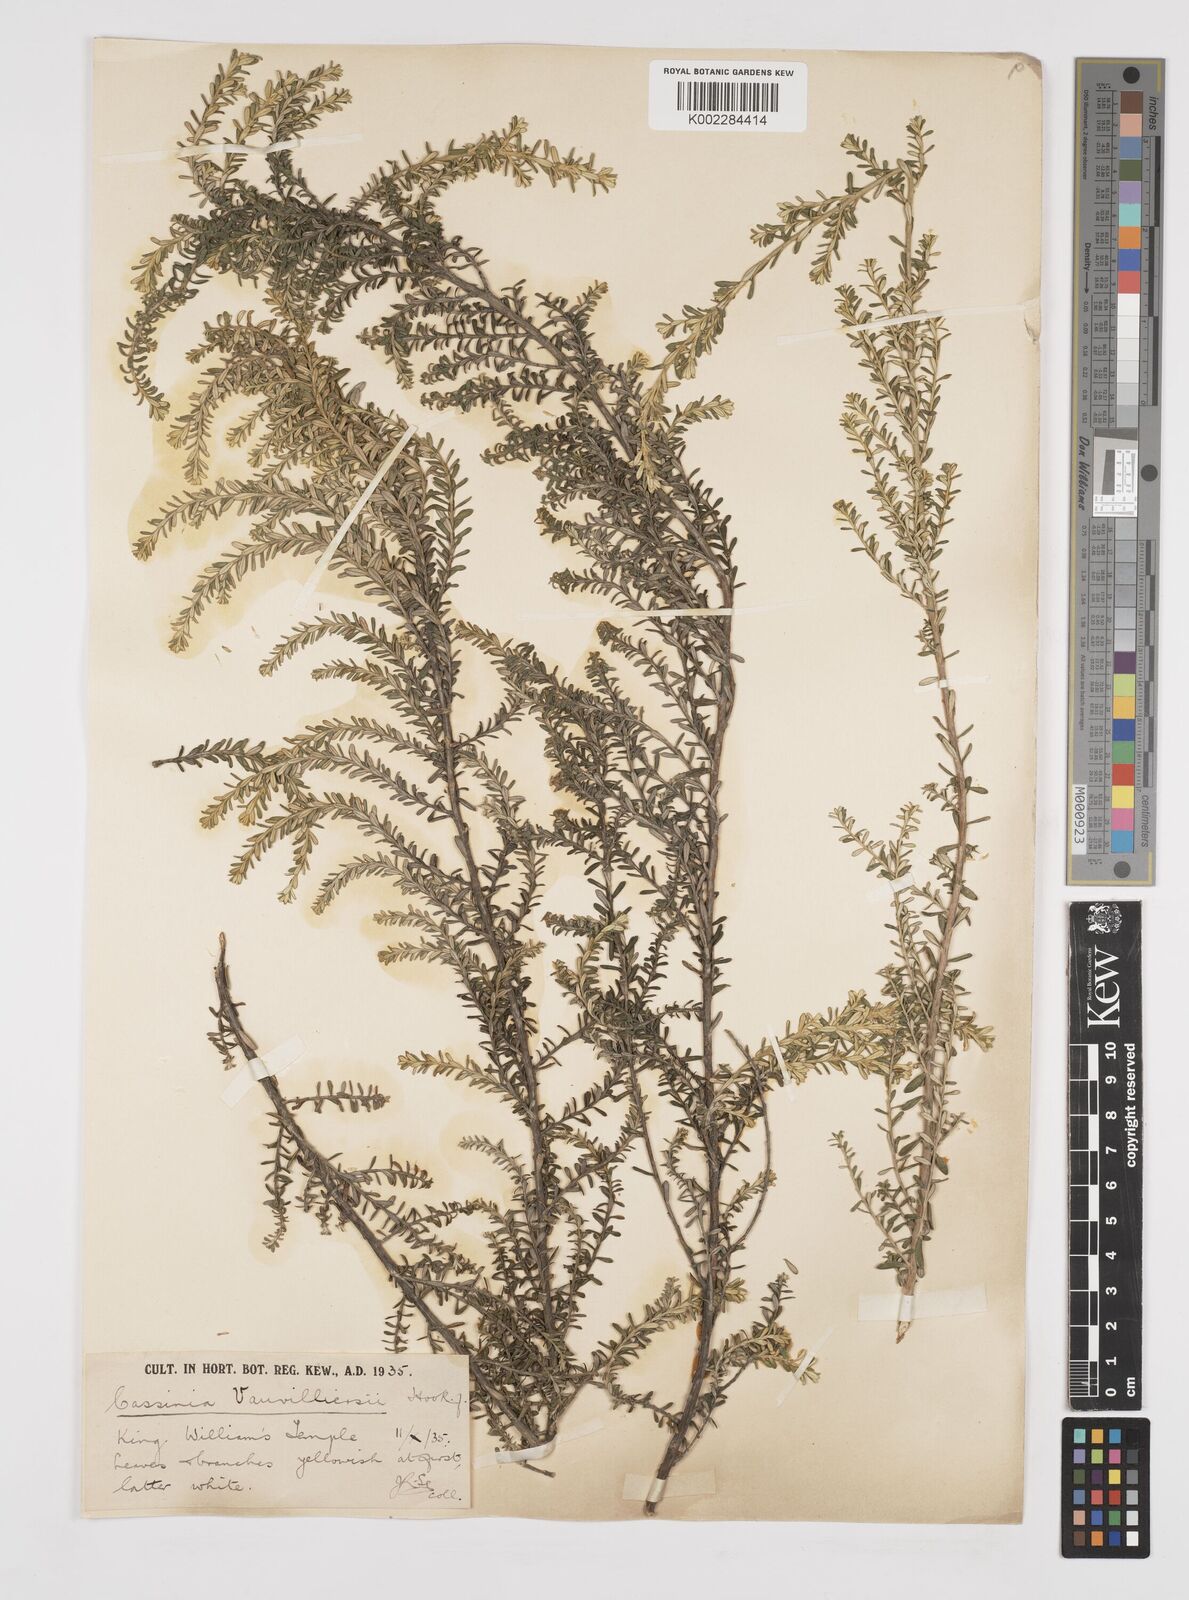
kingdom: Plantae
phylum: Tracheophyta
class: Magnoliopsida
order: Asterales
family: Asteraceae
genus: Ozothamnus
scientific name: Ozothamnus leptophyllus
